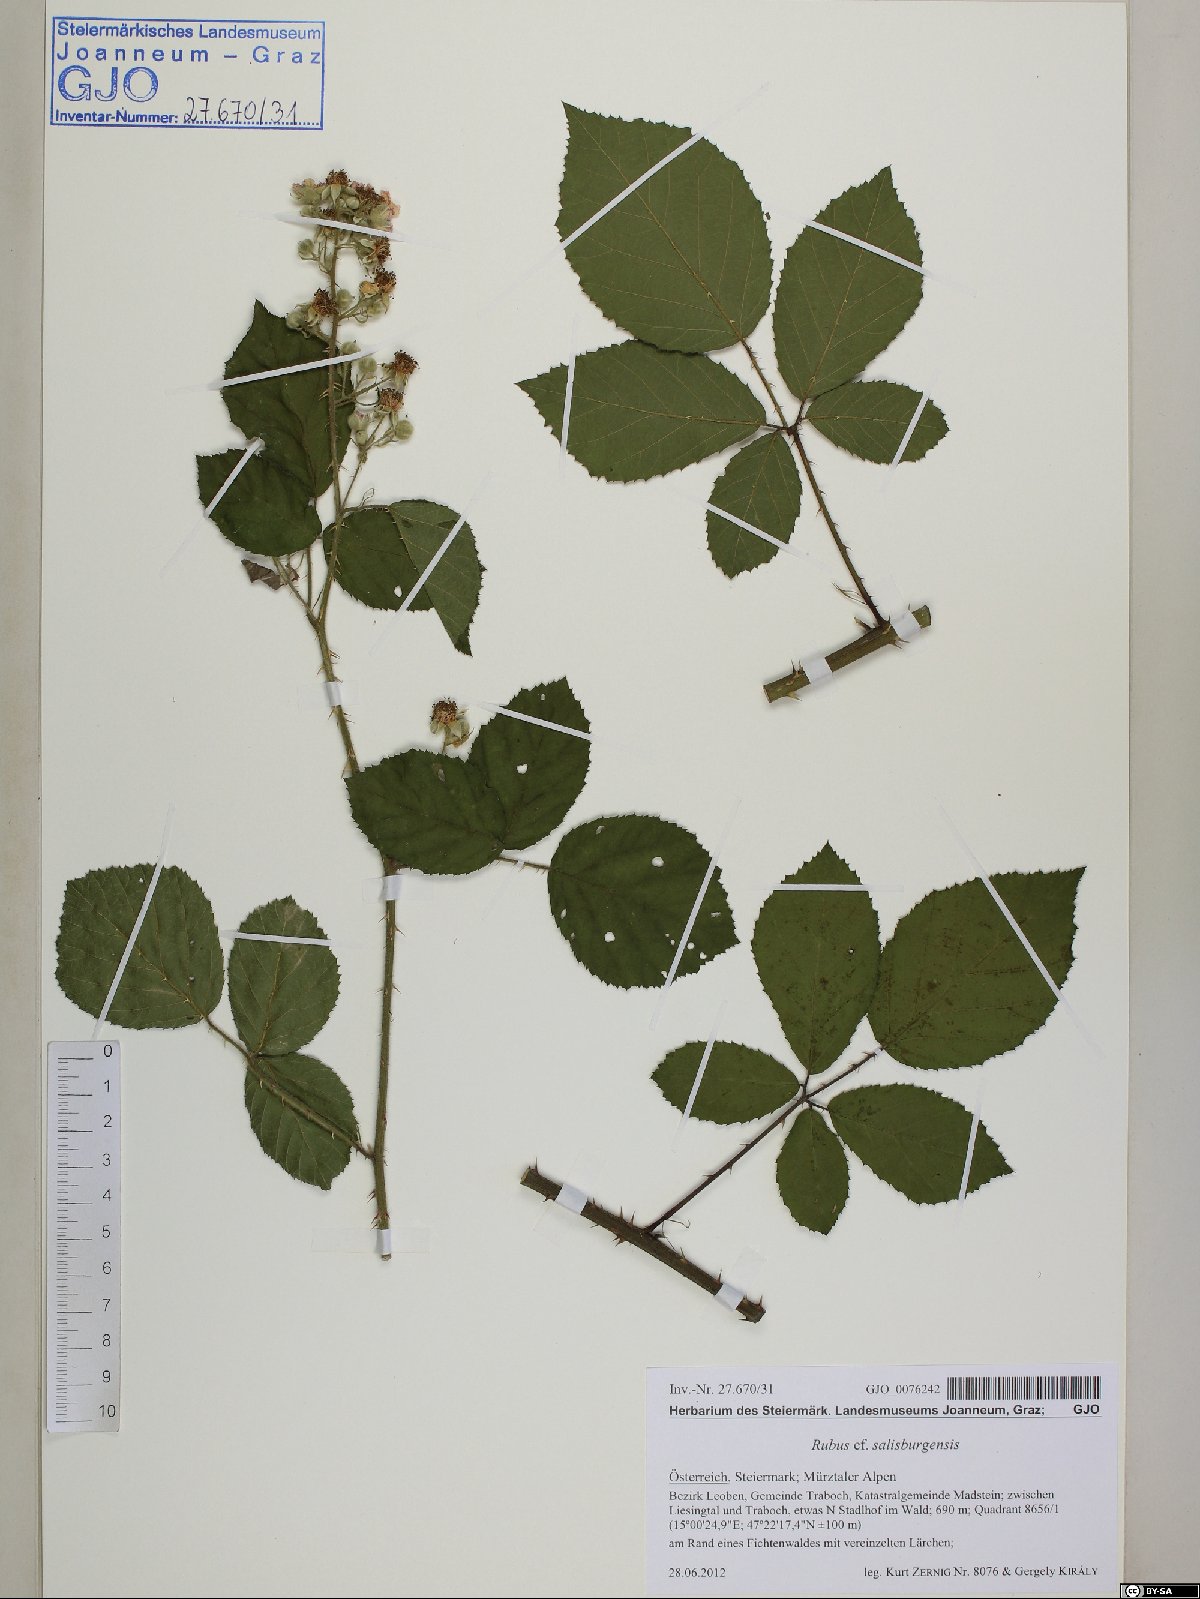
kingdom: Plantae
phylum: Tracheophyta
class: Magnoliopsida
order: Rosales
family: Rosaceae
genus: Rubus
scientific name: Rubus salisburgensis
